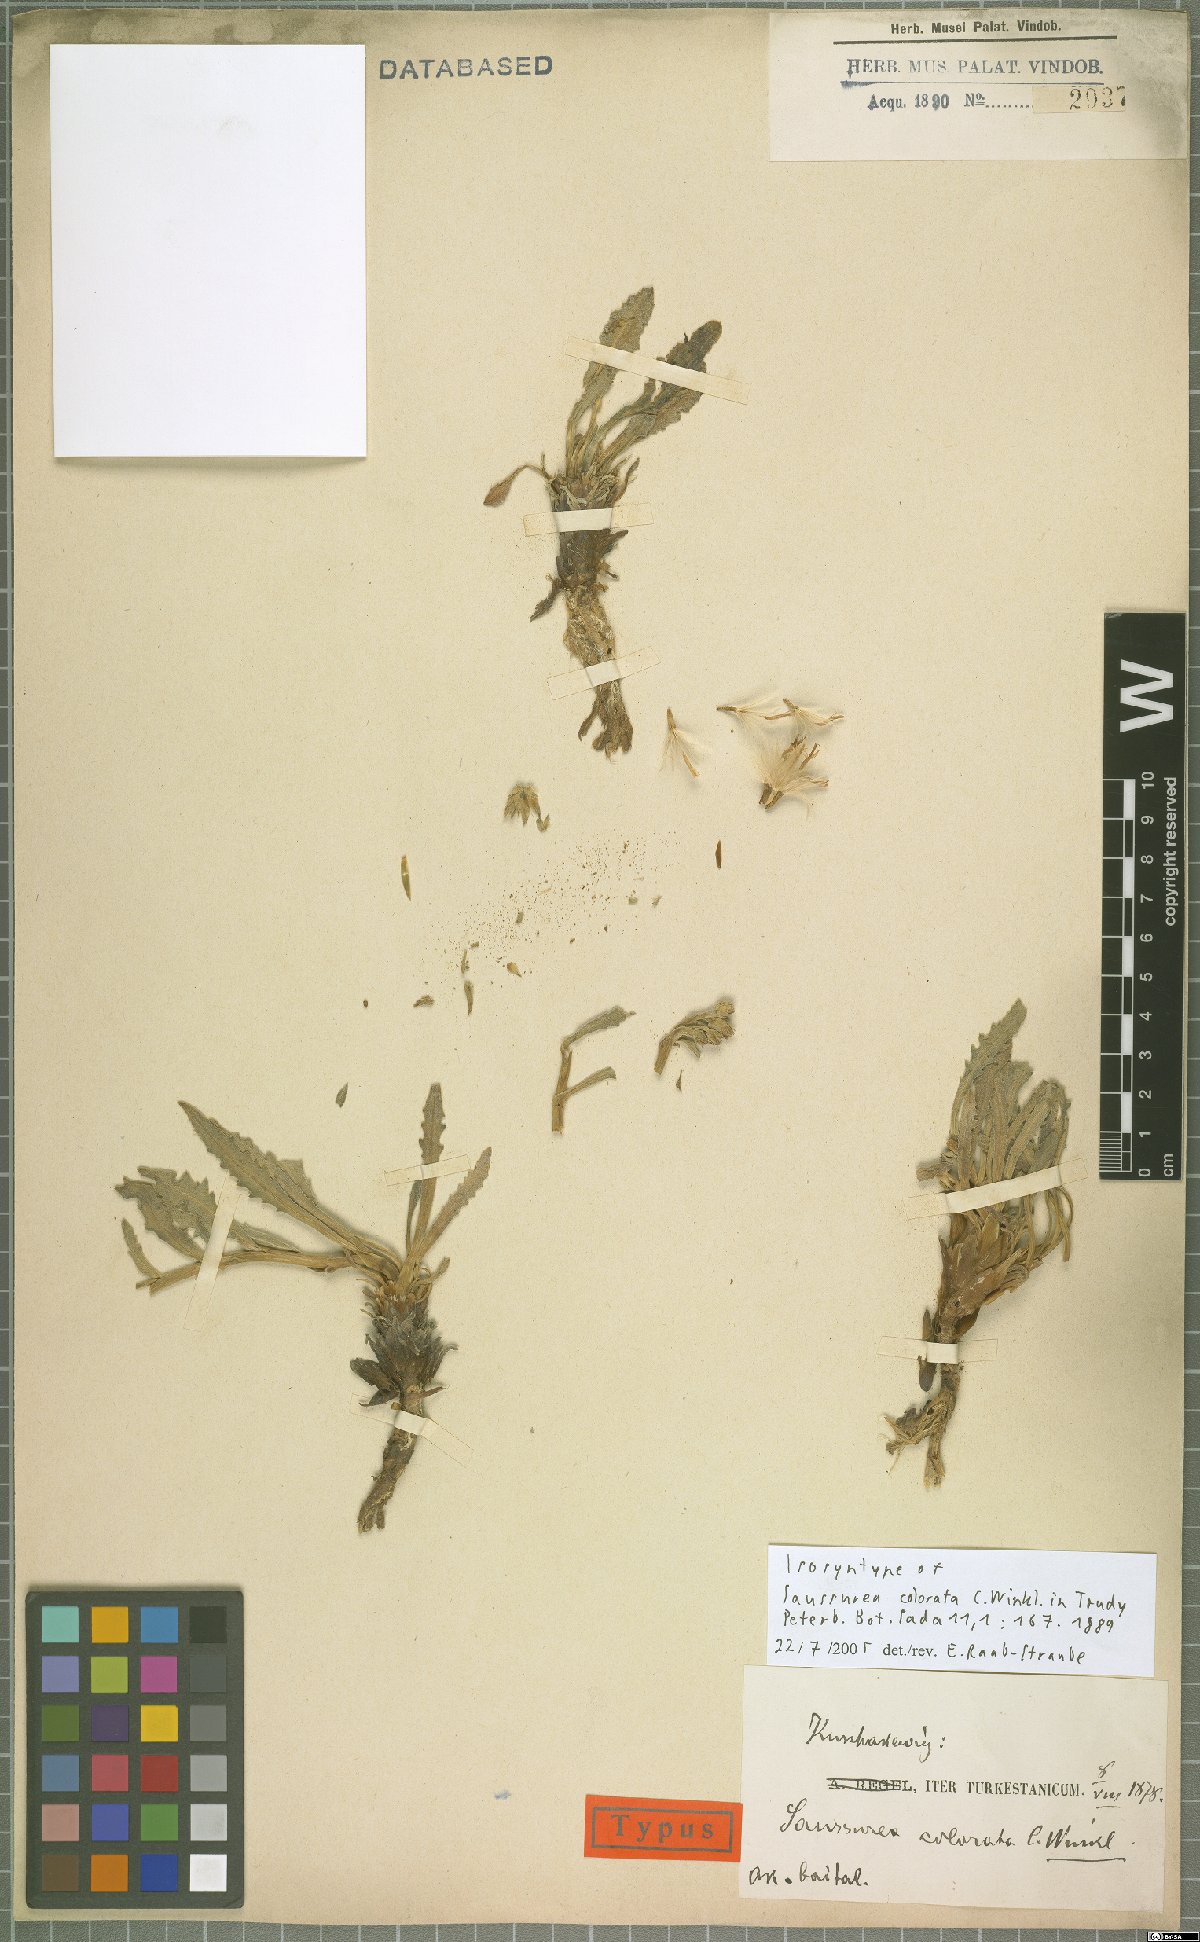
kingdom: Plantae
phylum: Tracheophyta
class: Magnoliopsida
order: Asterales
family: Asteraceae
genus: Saussurea
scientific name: Saussurea famintziniana
